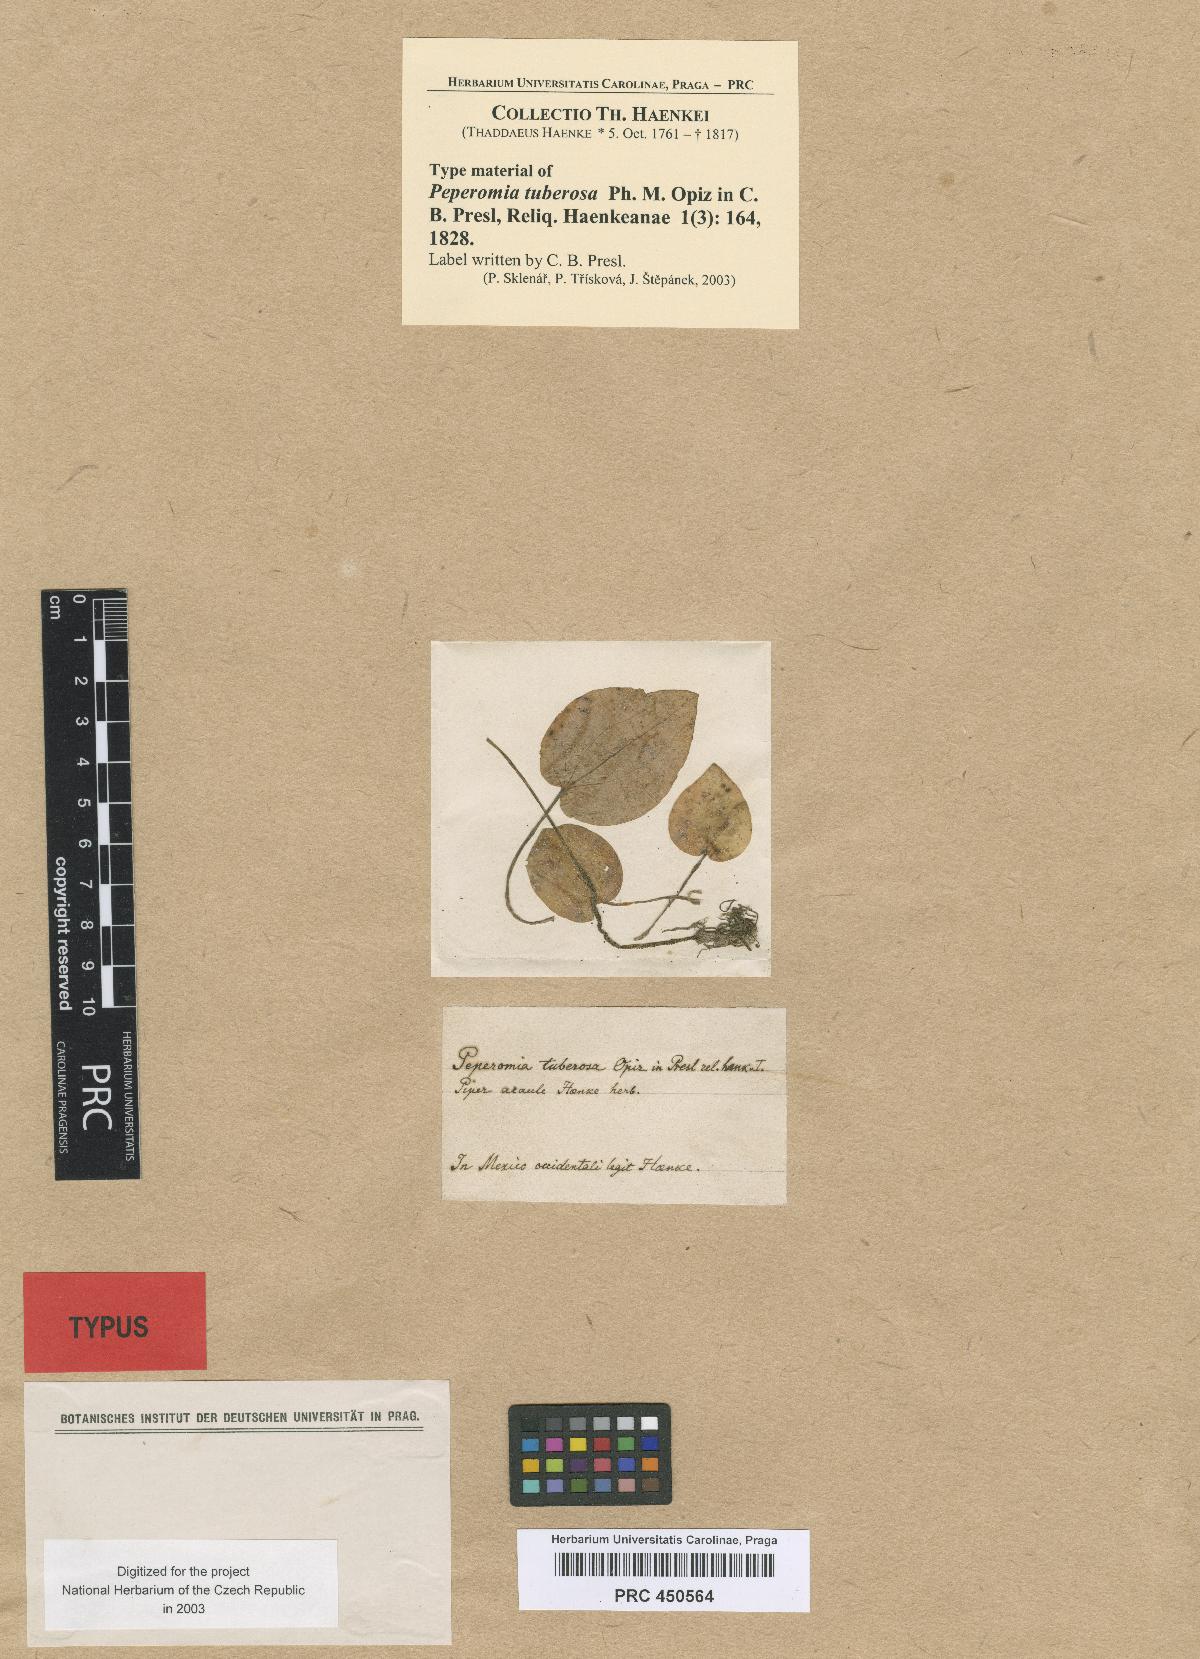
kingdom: Plantae
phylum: Tracheophyta
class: Magnoliopsida
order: Piperales
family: Piperaceae
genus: Peperomia
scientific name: Peperomia lanceolatopeltata
